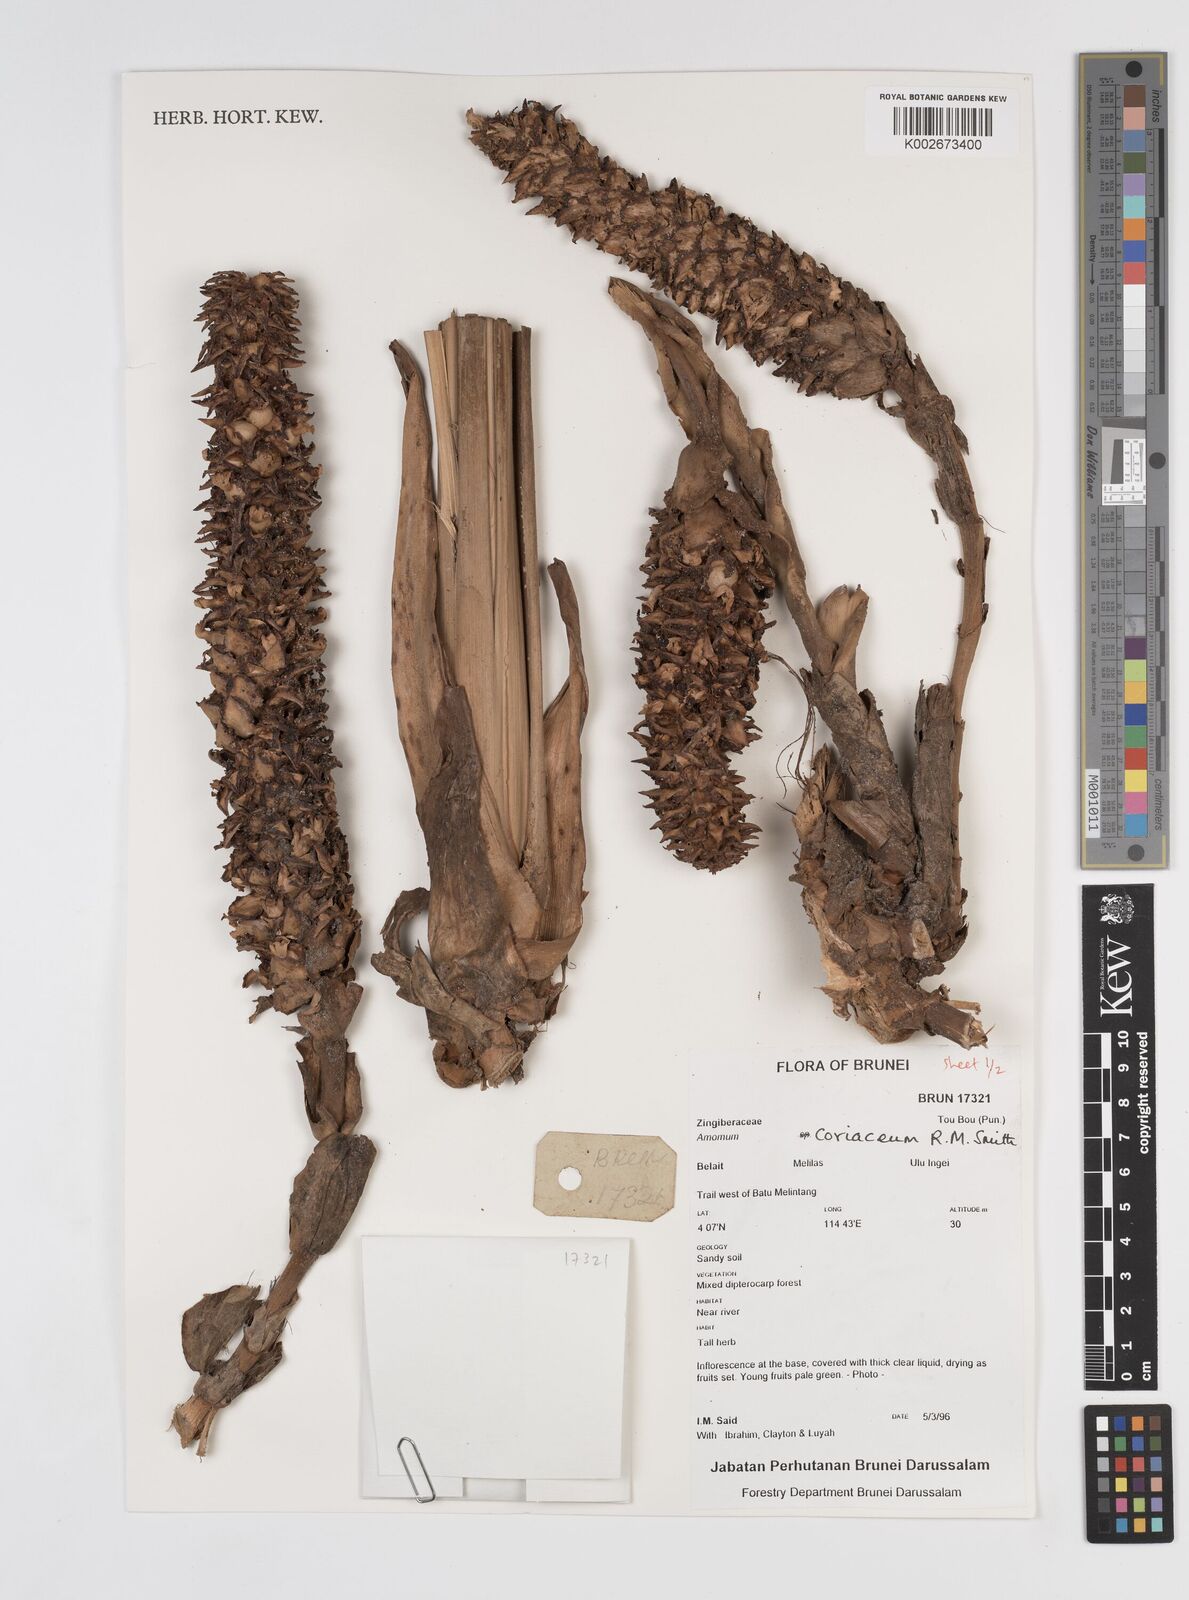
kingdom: Plantae
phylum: Tracheophyta
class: Liliopsida
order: Zingiberales
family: Zingiberaceae
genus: Conamomum
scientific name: Conamomum cylindrostachys
